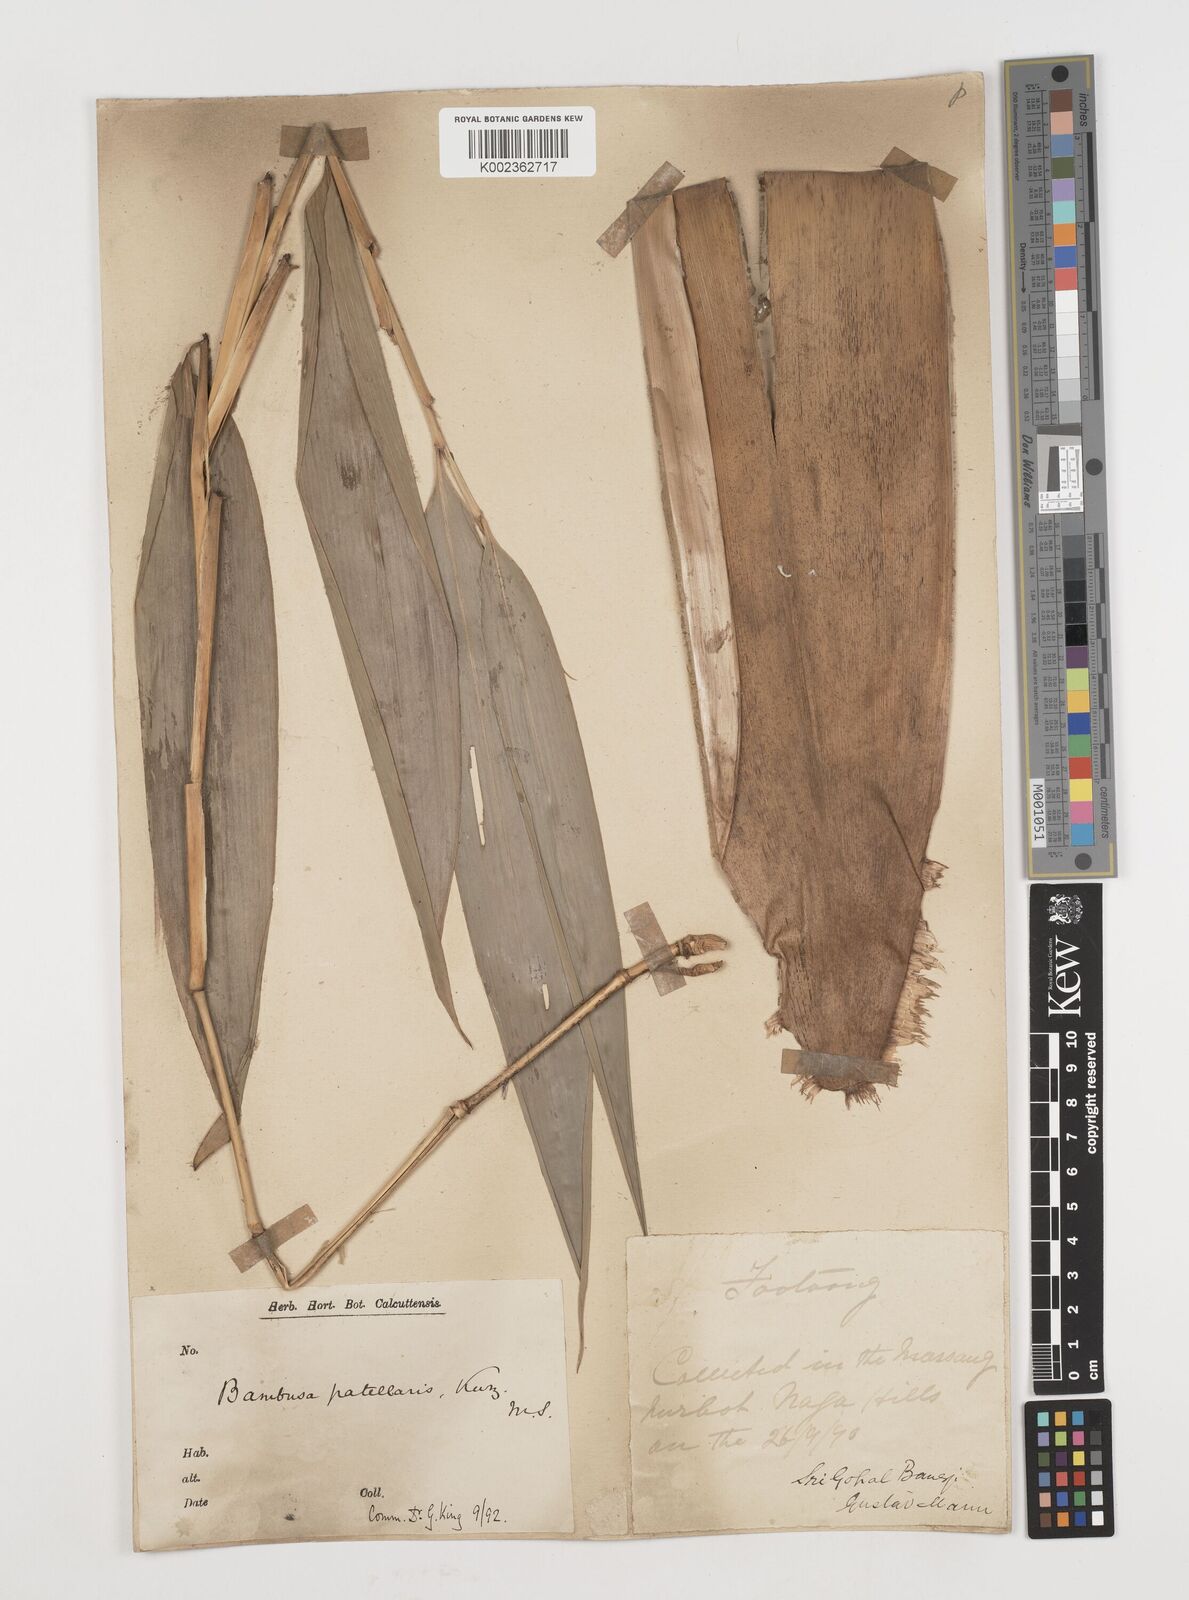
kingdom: Plantae
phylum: Tracheophyta
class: Liliopsida
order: Poales
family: Poaceae
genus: Ampelocalamus
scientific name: Ampelocalamus patellaris
